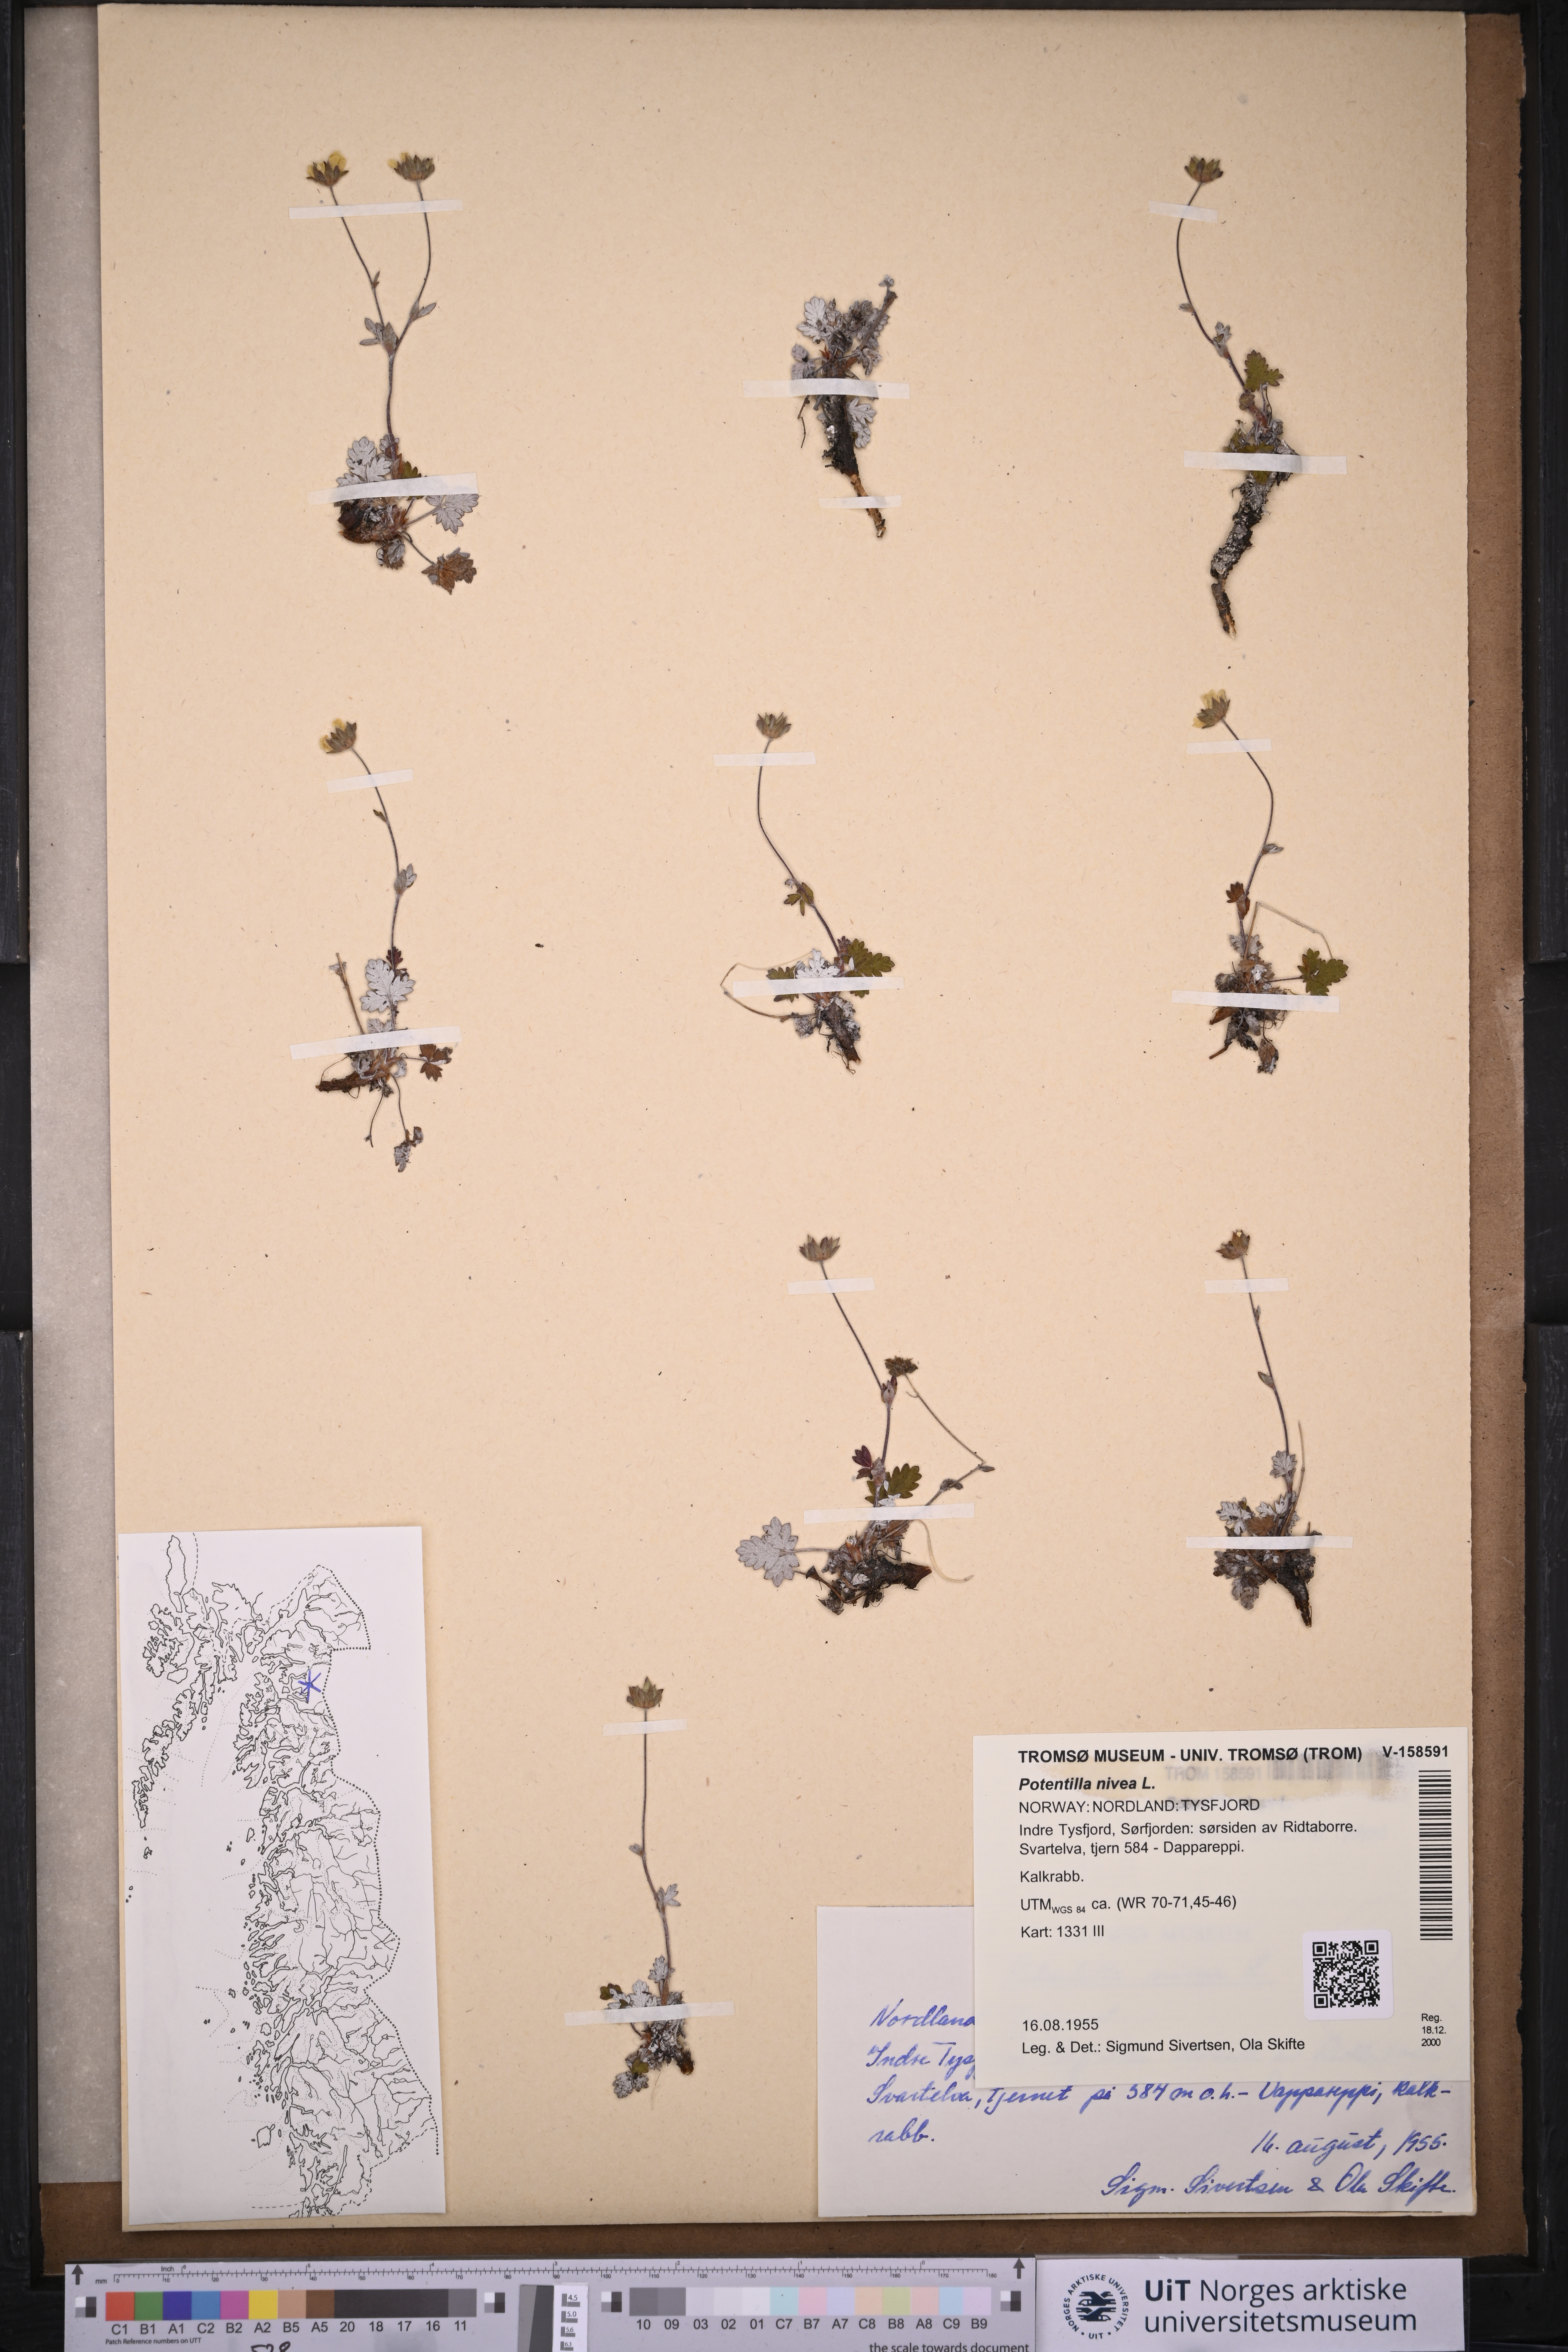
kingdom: Plantae
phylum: Tracheophyta
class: Magnoliopsida
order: Rosales
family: Rosaceae
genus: Potentilla
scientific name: Potentilla arenosa
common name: Bluff cinquefoil
